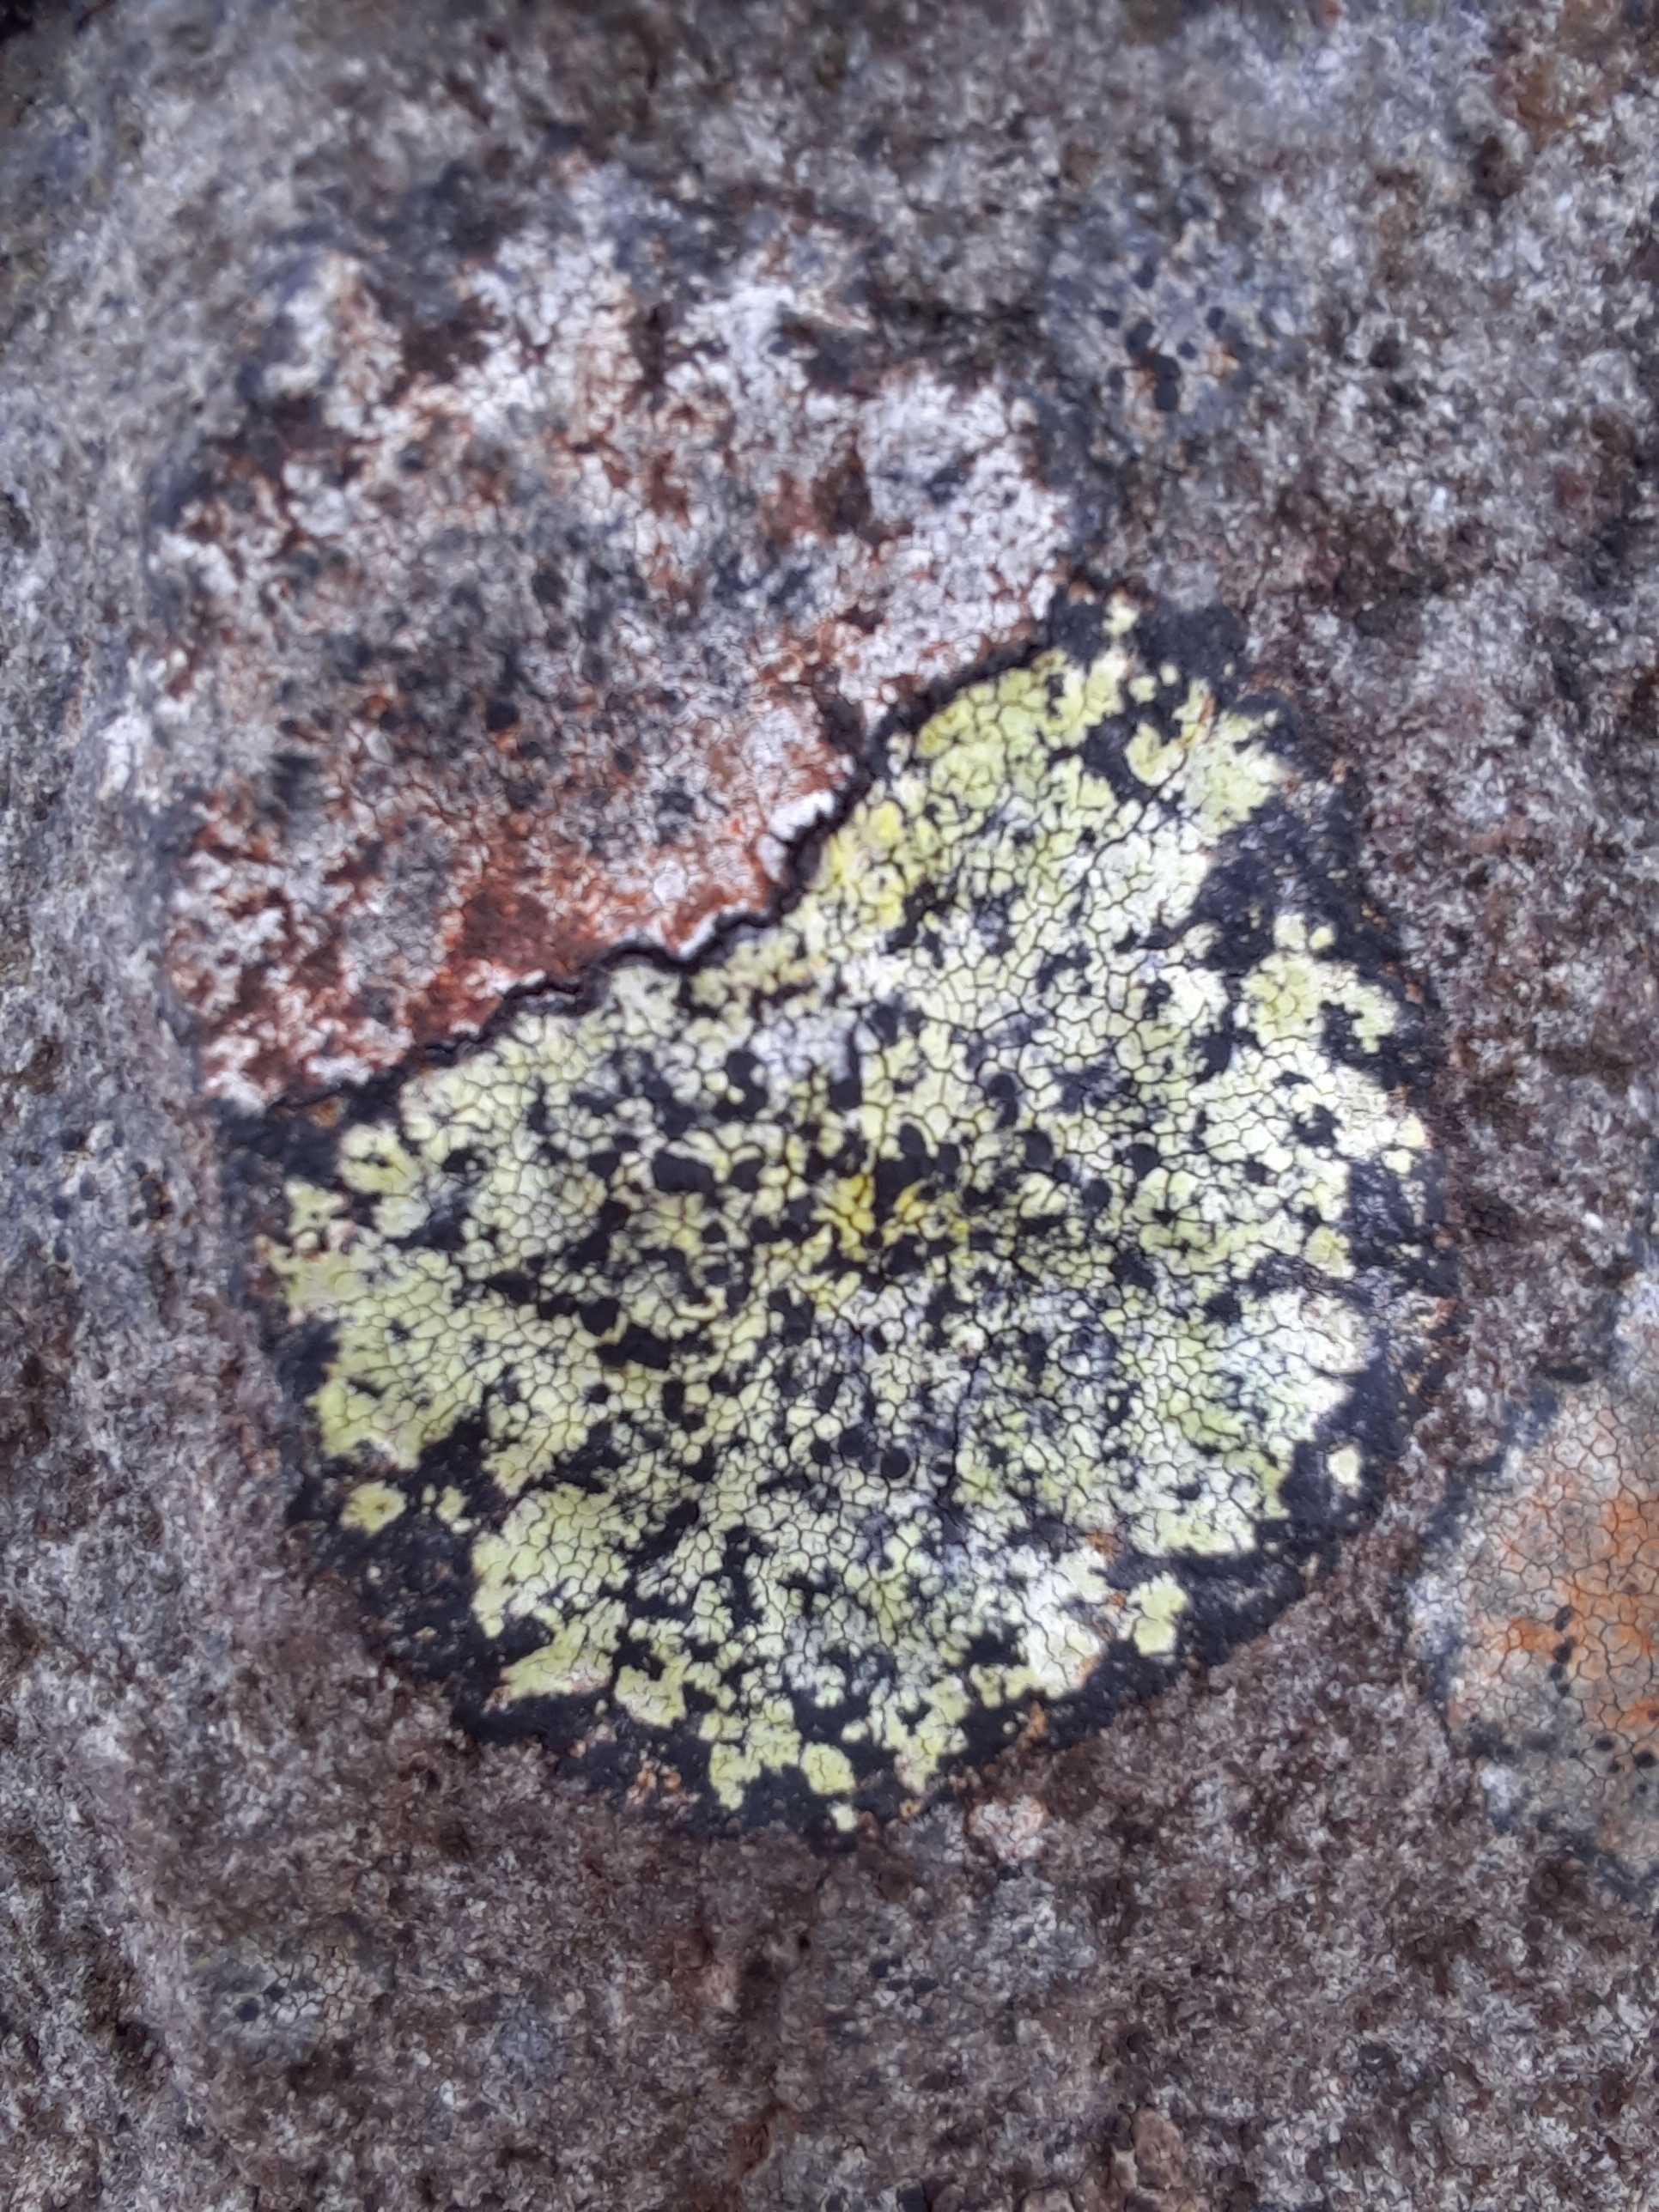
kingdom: Fungi
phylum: Ascomycota
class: Lecanoromycetes
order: Rhizocarpales
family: Rhizocarpaceae
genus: Rhizocarpon
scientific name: Rhizocarpon
